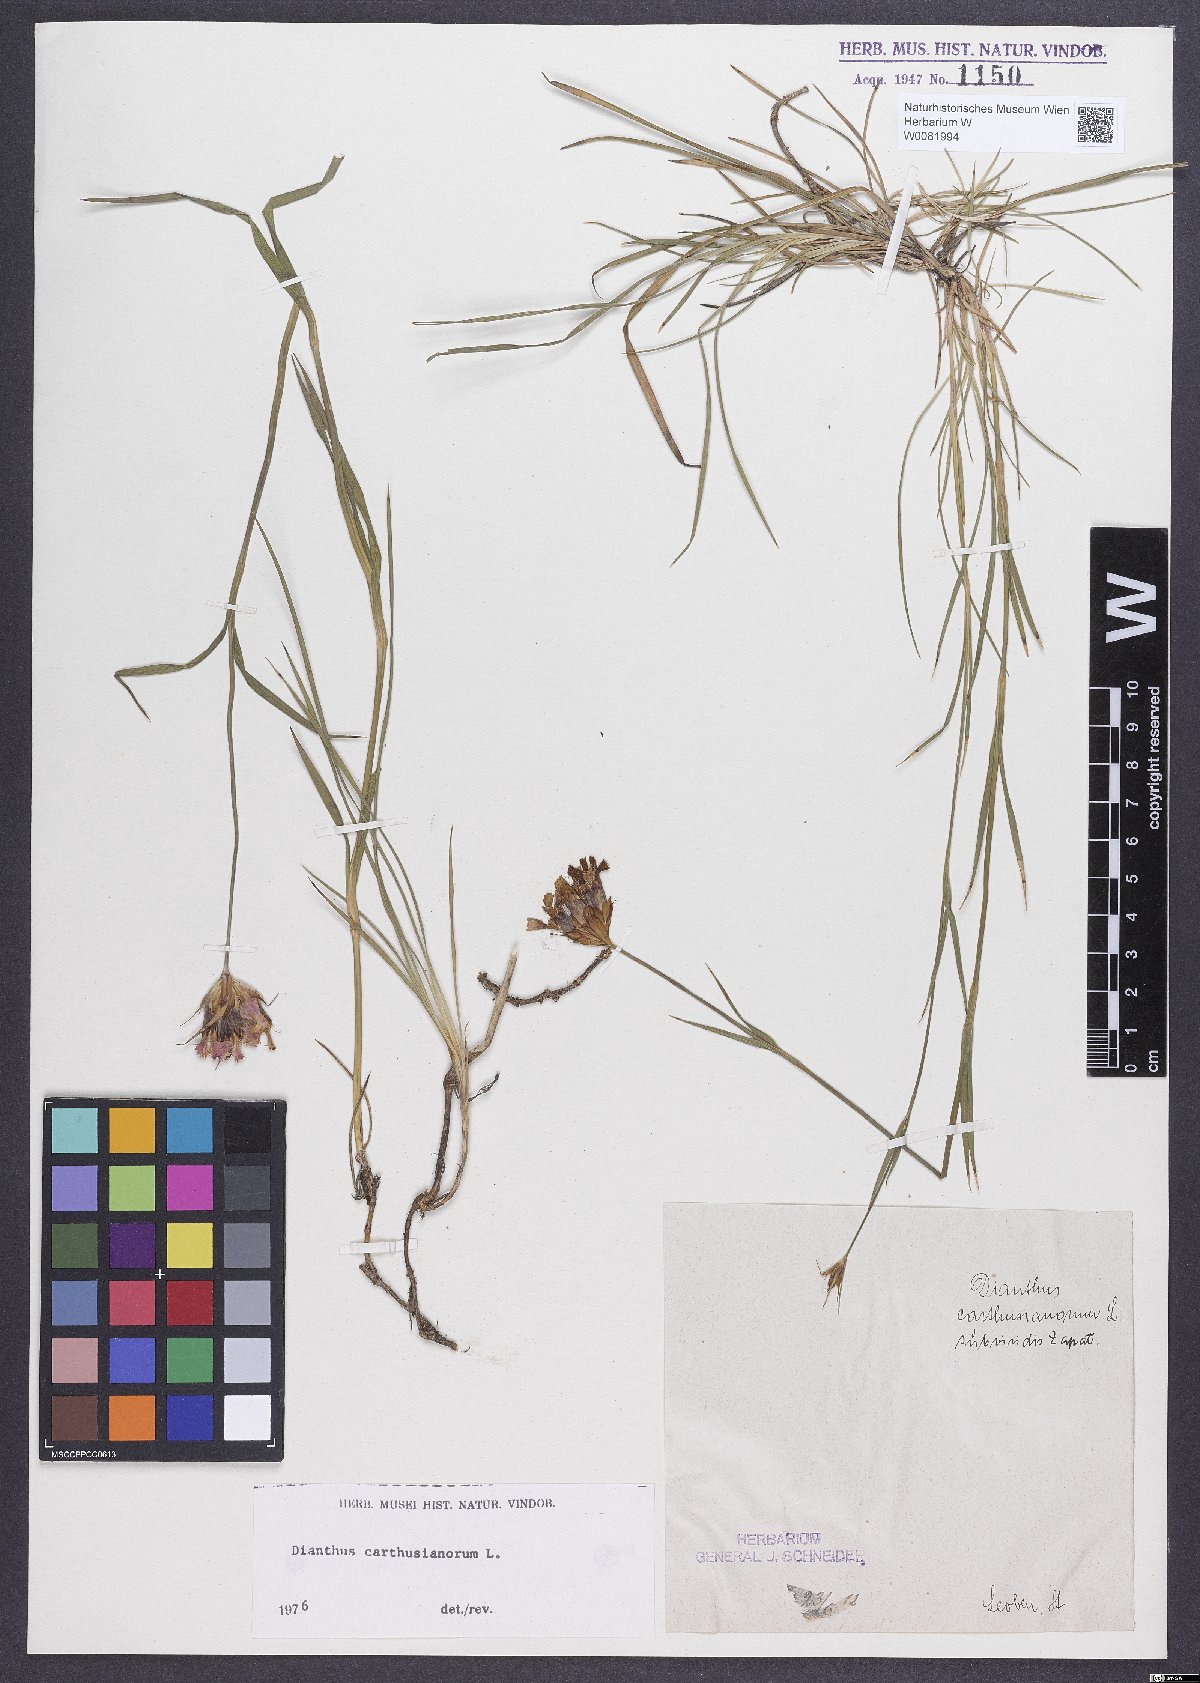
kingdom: Plantae
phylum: Tracheophyta
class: Magnoliopsida
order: Caryophyllales
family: Caryophyllaceae
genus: Dianthus
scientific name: Dianthus carthusianorum
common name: Carthusian pink
